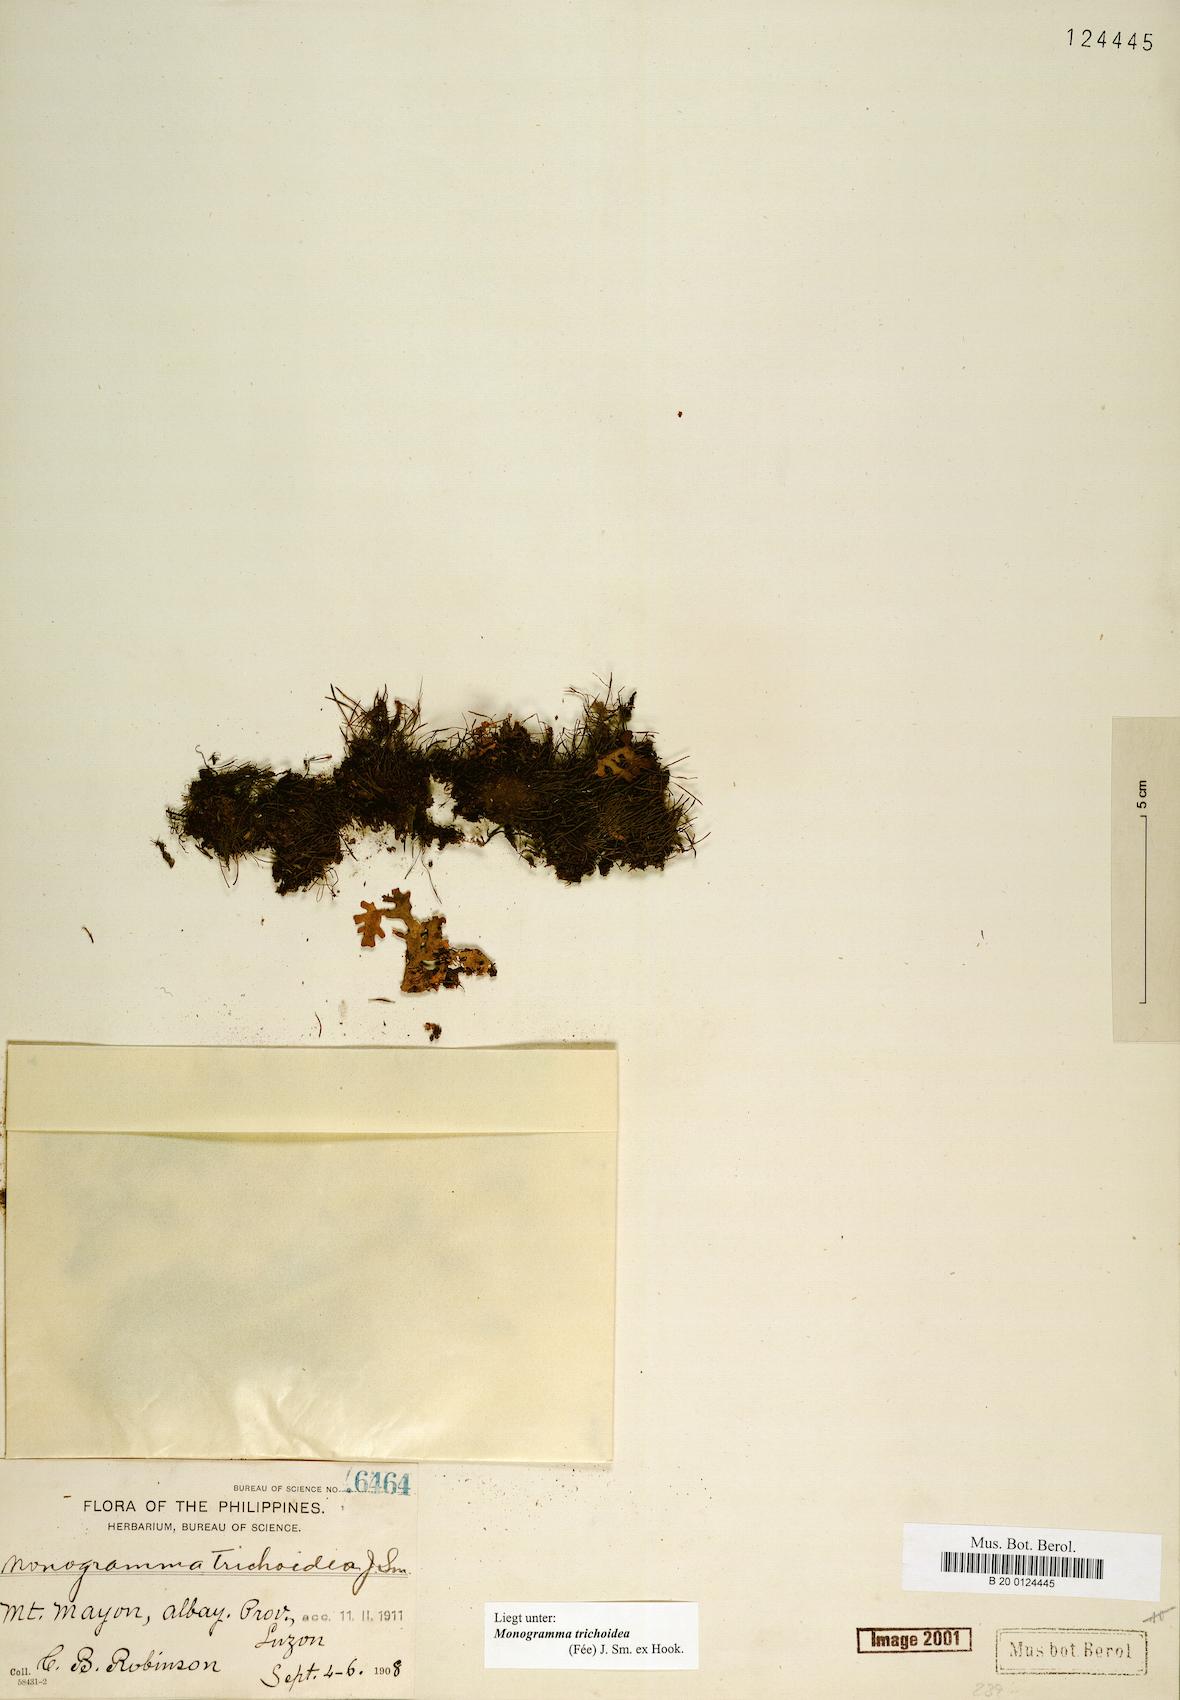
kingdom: Plantae
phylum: Tracheophyta
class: Polypodiopsida
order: Polypodiales
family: Pteridaceae
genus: Vaginularia
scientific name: Vaginularia trichoidea
